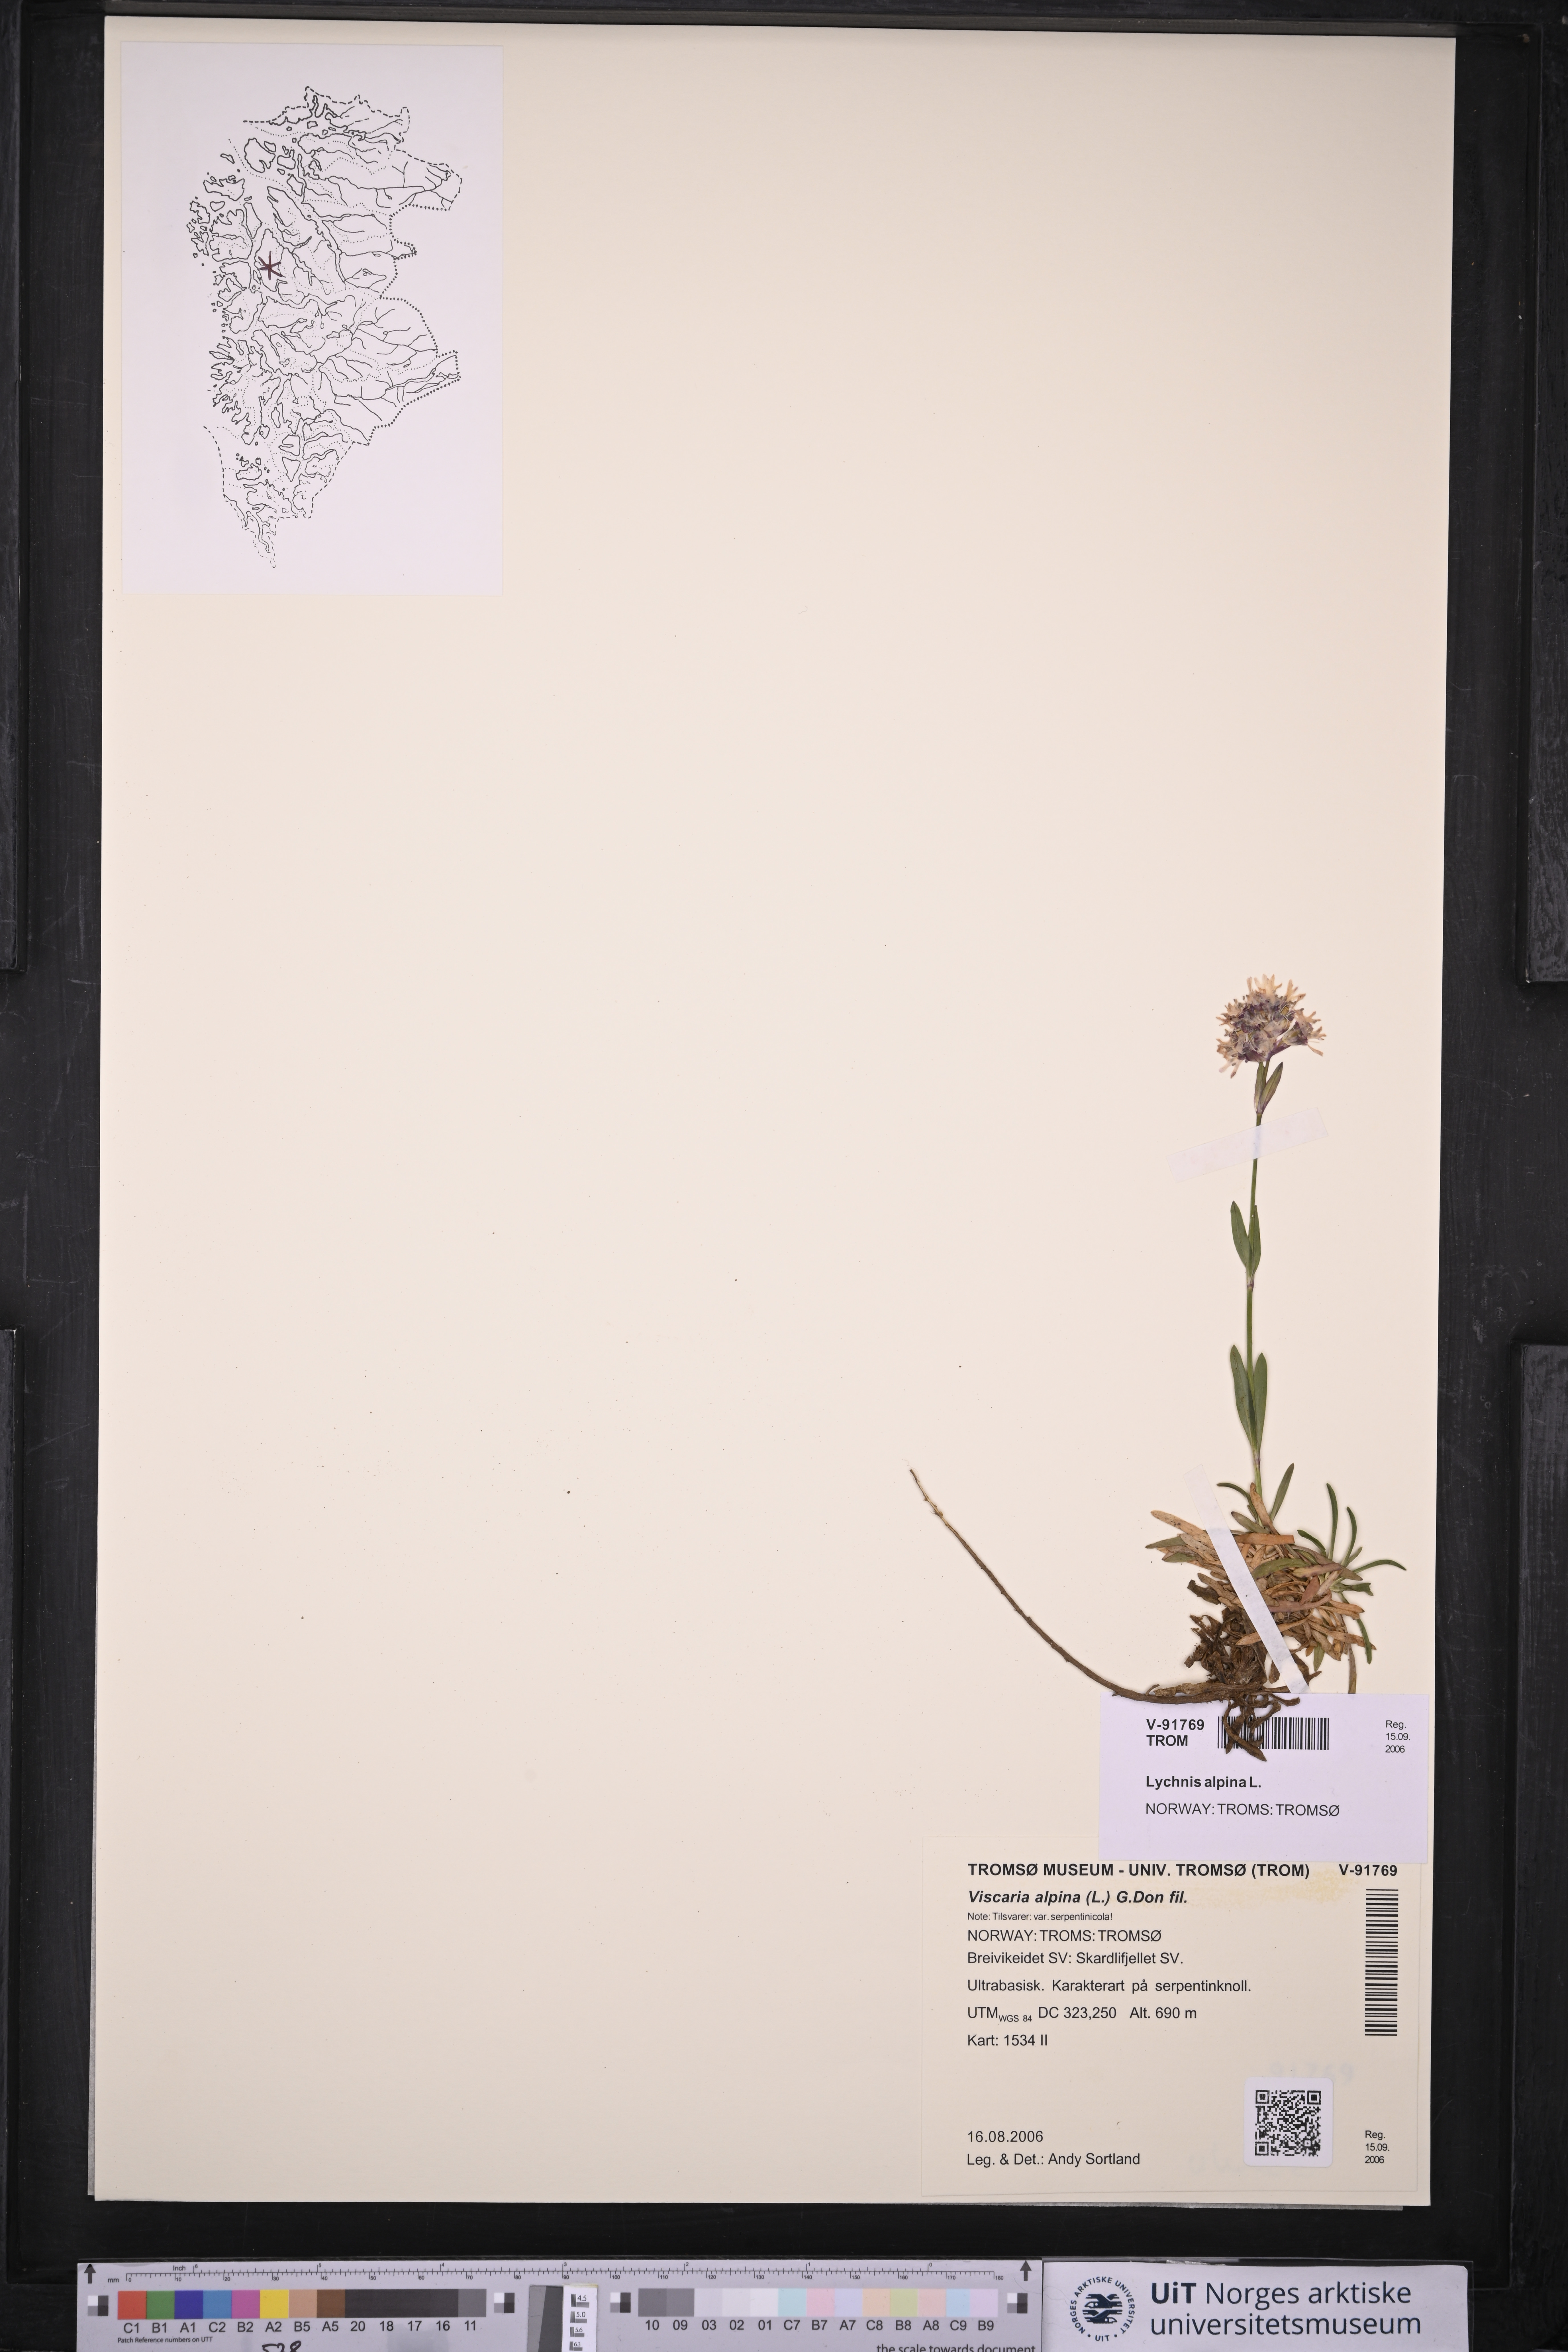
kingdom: Plantae
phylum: Tracheophyta
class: Magnoliopsida
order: Caryophyllales
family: Caryophyllaceae
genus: Viscaria
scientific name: Viscaria alpina
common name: Alpine campion
